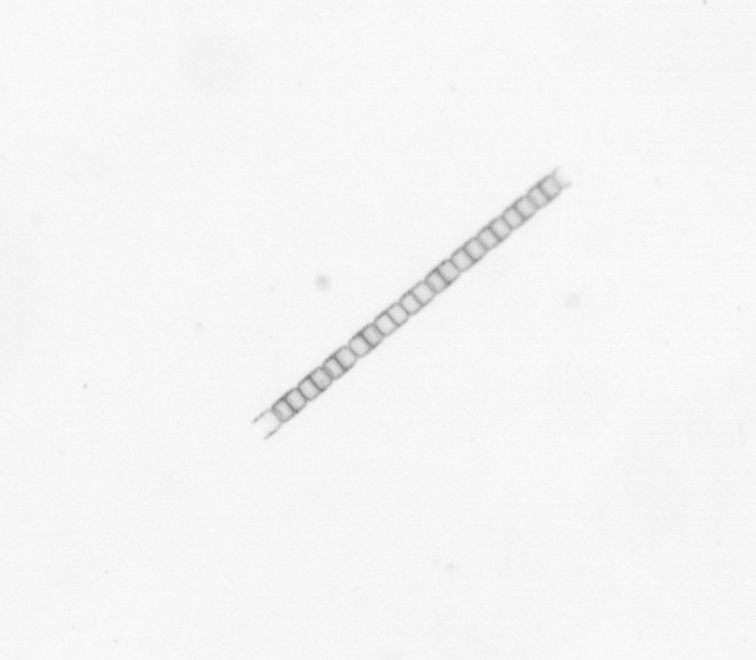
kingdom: Chromista
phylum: Ochrophyta
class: Bacillariophyceae
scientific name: Bacillariophyceae
